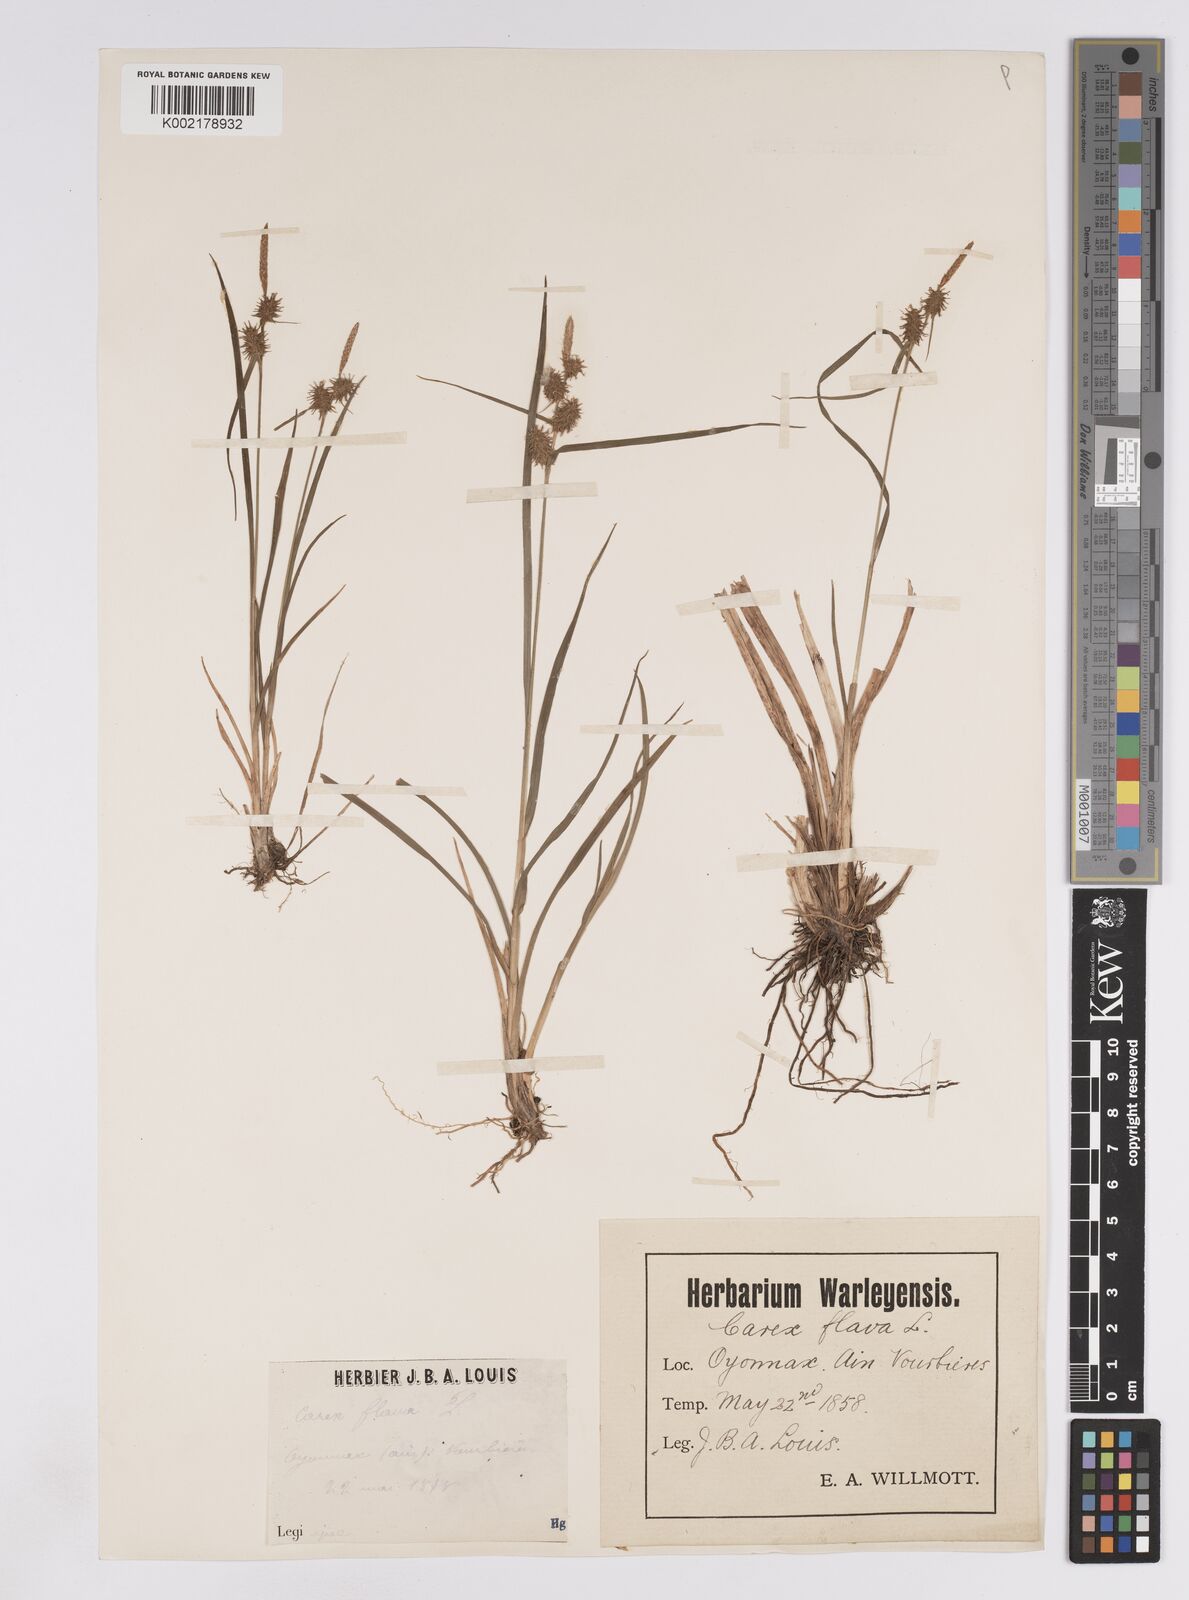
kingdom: Plantae
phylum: Tracheophyta
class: Liliopsida
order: Poales
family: Cyperaceae
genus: Carex
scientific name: Carex lepidocarpa
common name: Long-stalked yellow-sedge
